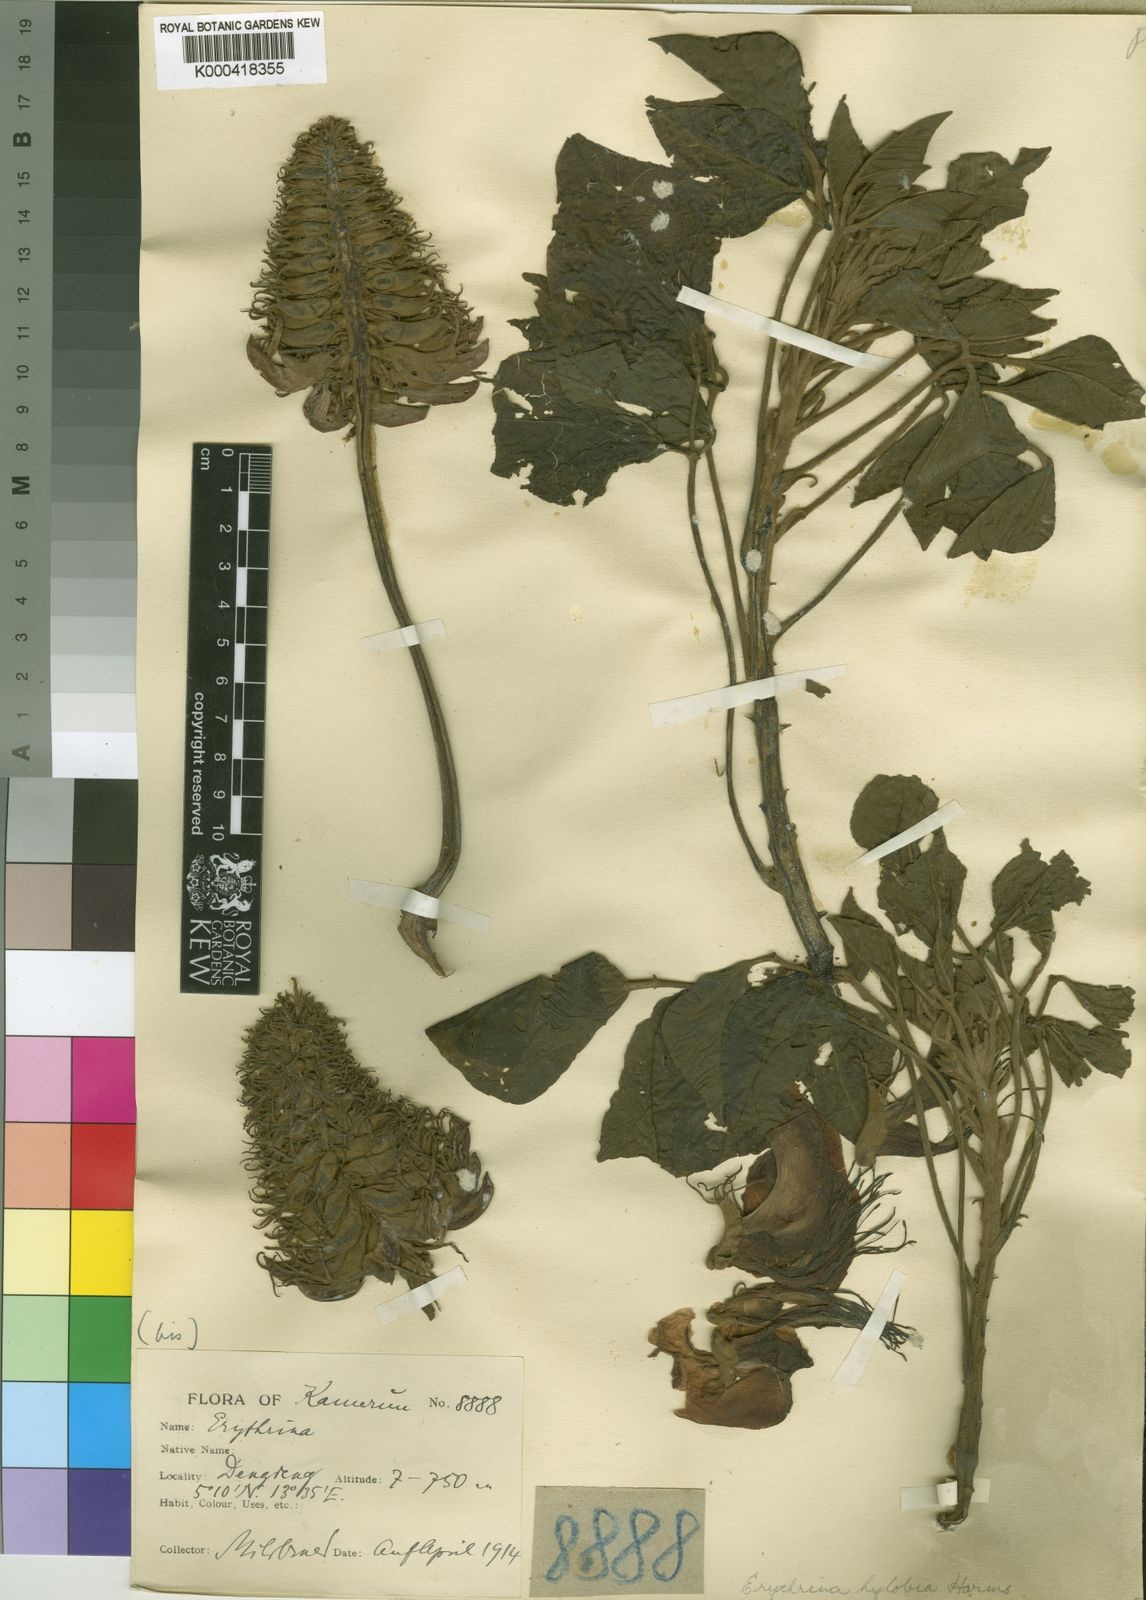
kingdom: Plantae
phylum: Tracheophyta
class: Magnoliopsida
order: Fabales
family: Fabaceae
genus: Erythrina
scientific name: Erythrina droogmansiana
